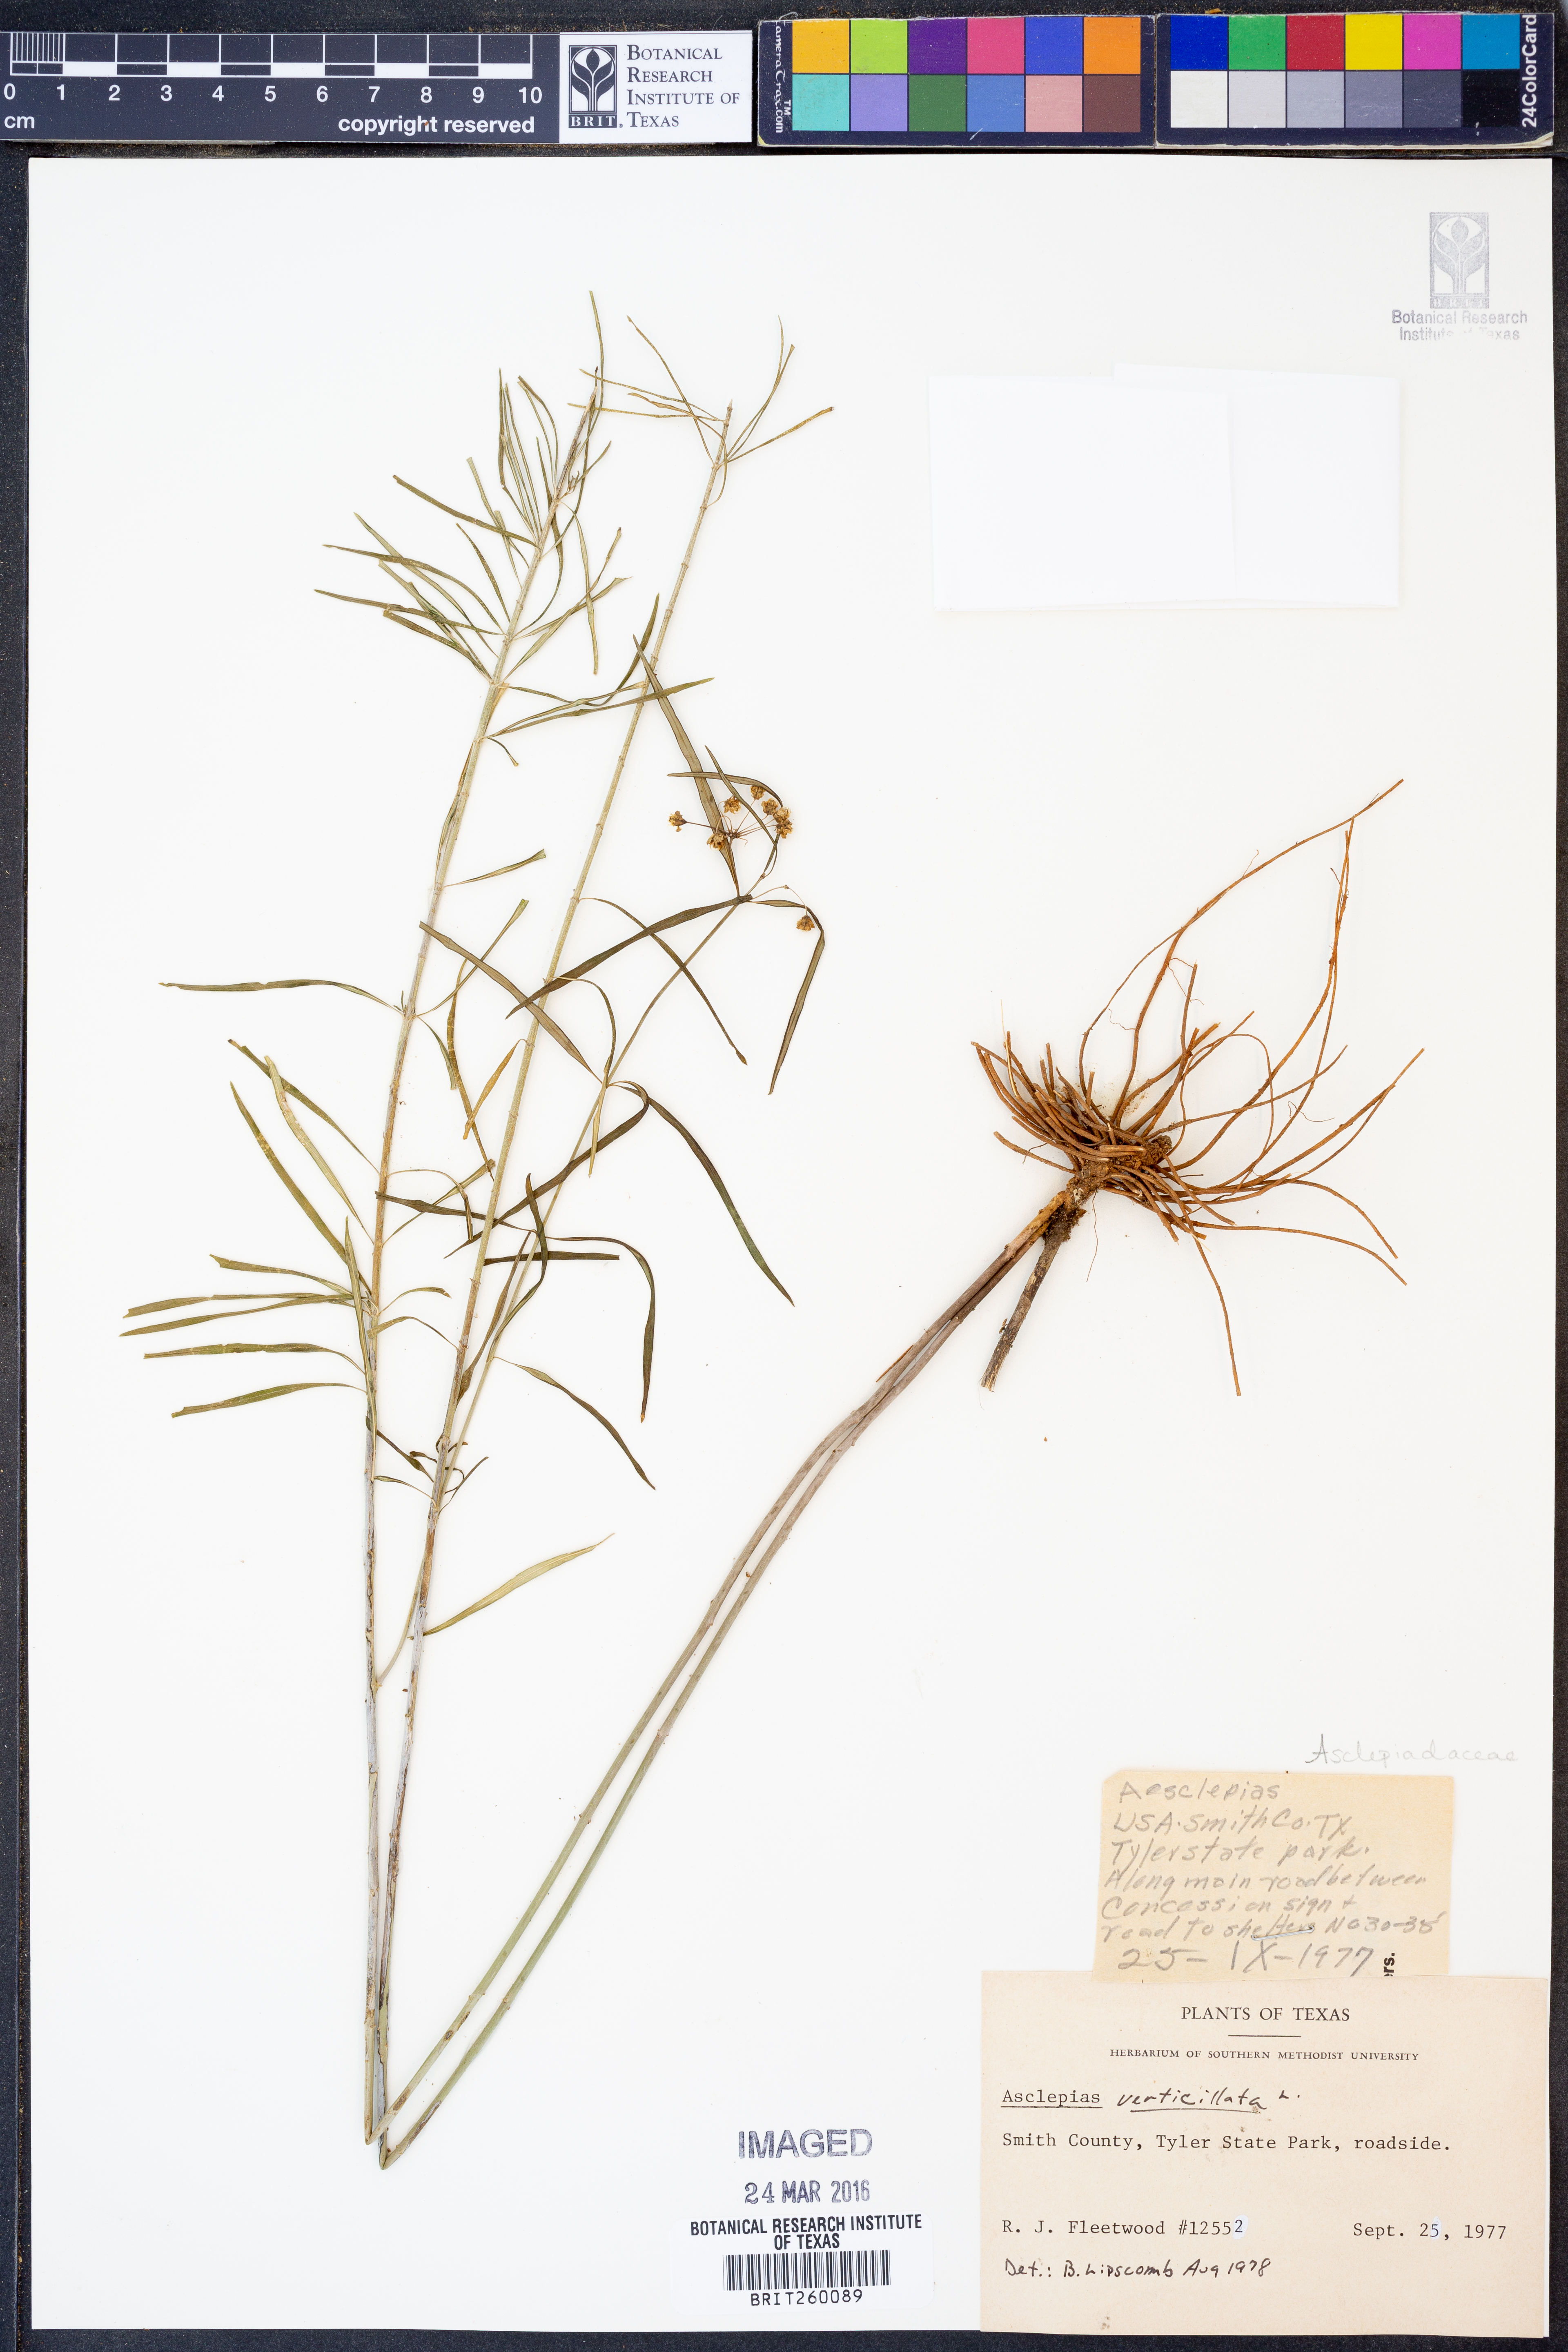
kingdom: Plantae
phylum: Tracheophyta
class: Magnoliopsida
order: Gentianales
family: Apocynaceae
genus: Asclepias
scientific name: Asclepias verticillata
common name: Eastern whorled milkweed
